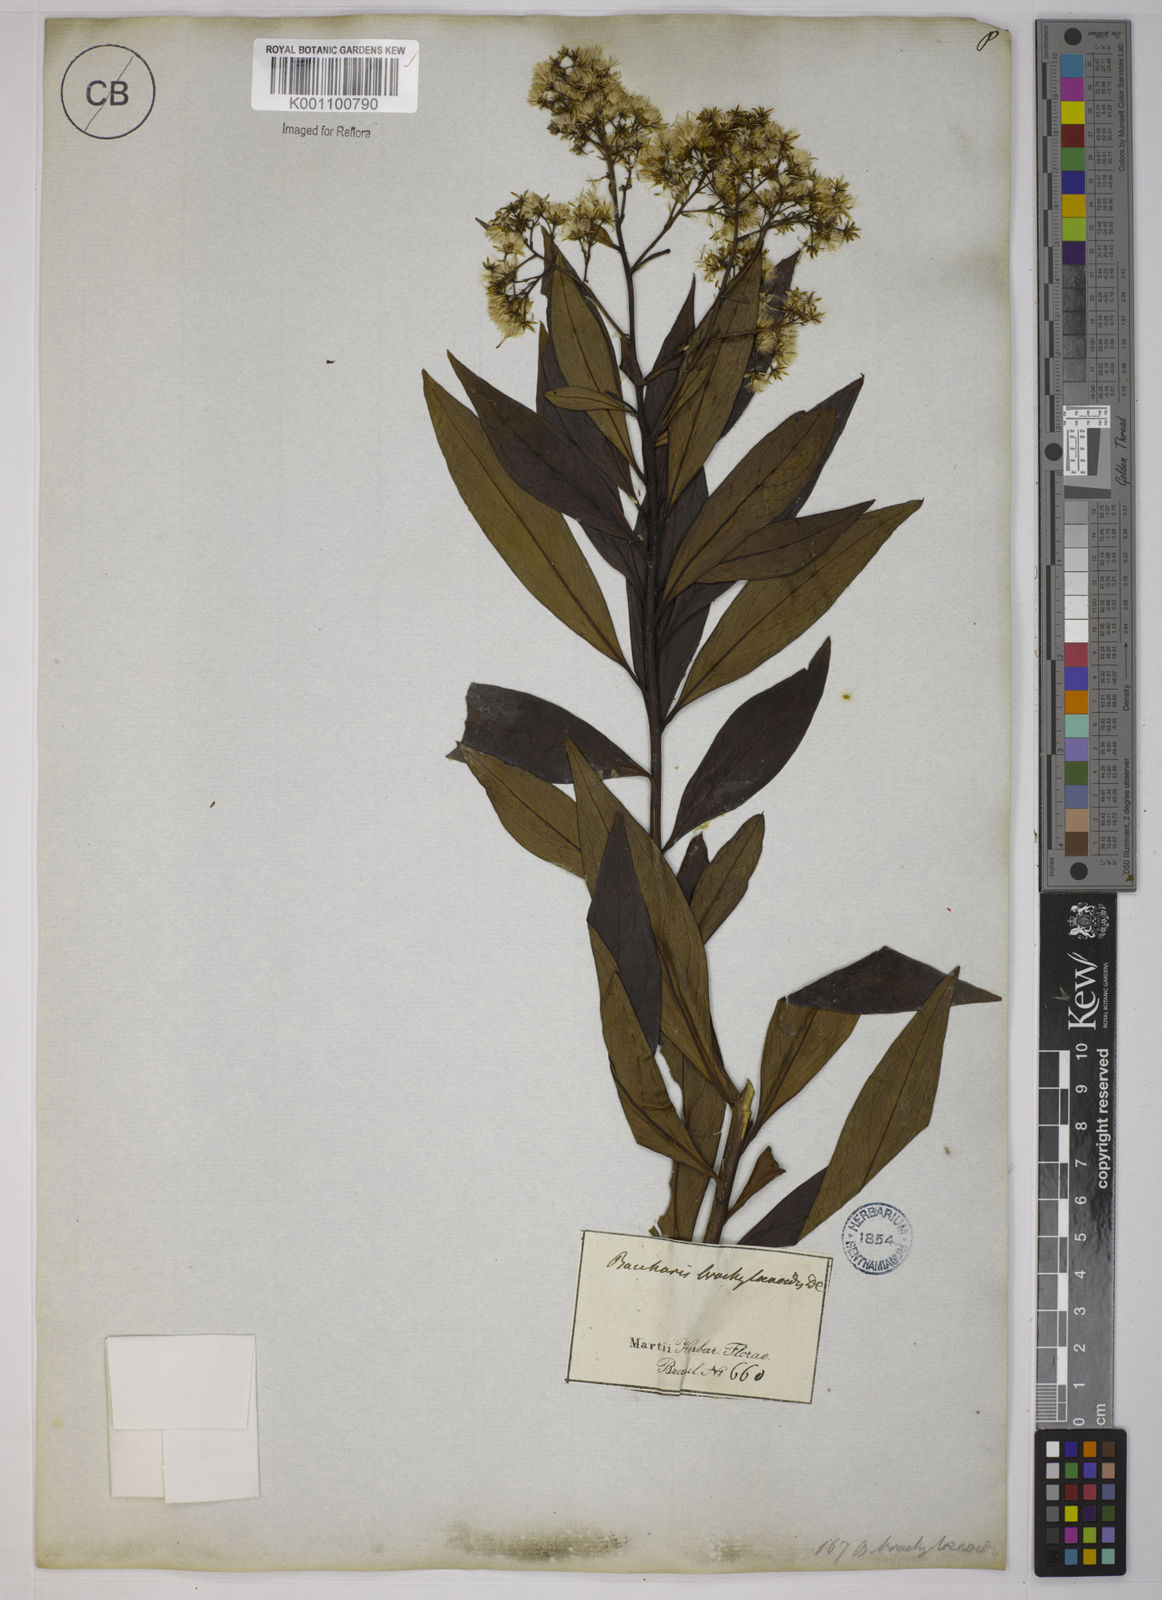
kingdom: Plantae
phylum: Tracheophyta
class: Magnoliopsida
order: Asterales
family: Asteraceae
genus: Baccharis
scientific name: Baccharis oblongifolia
